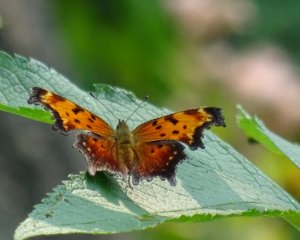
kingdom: Animalia
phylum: Arthropoda
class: Insecta
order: Lepidoptera
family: Nymphalidae
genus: Polygonia
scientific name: Polygonia progne
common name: Gray Comma
